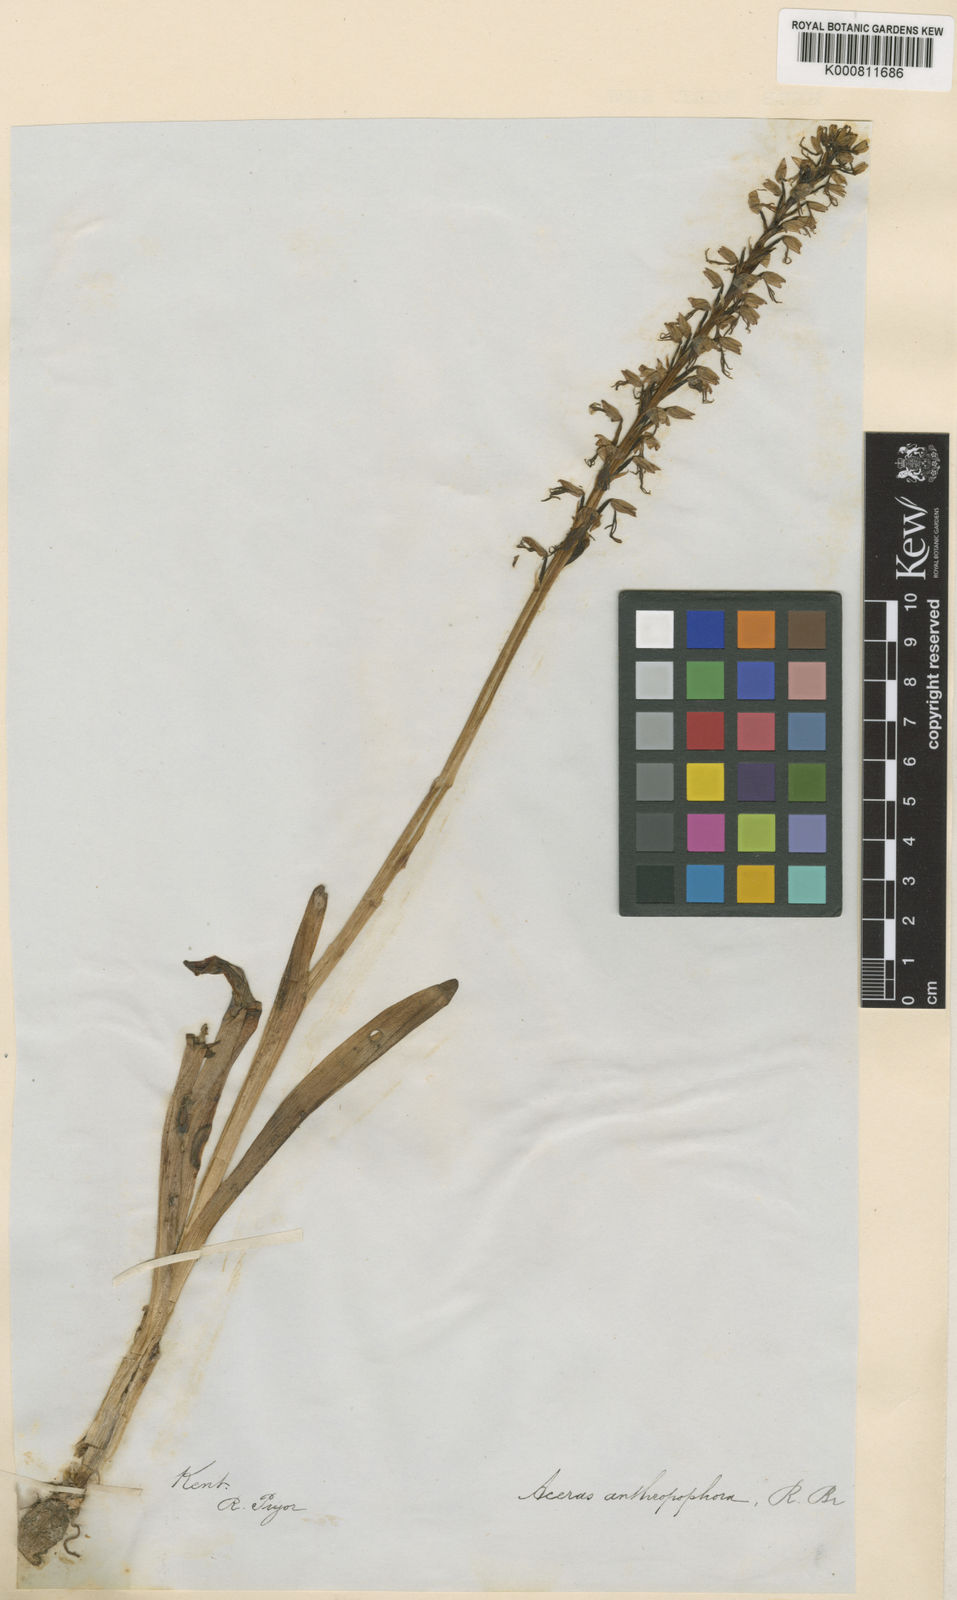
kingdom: Plantae
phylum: Tracheophyta
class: Liliopsida
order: Asparagales
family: Orchidaceae
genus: Orchis
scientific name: Orchis
